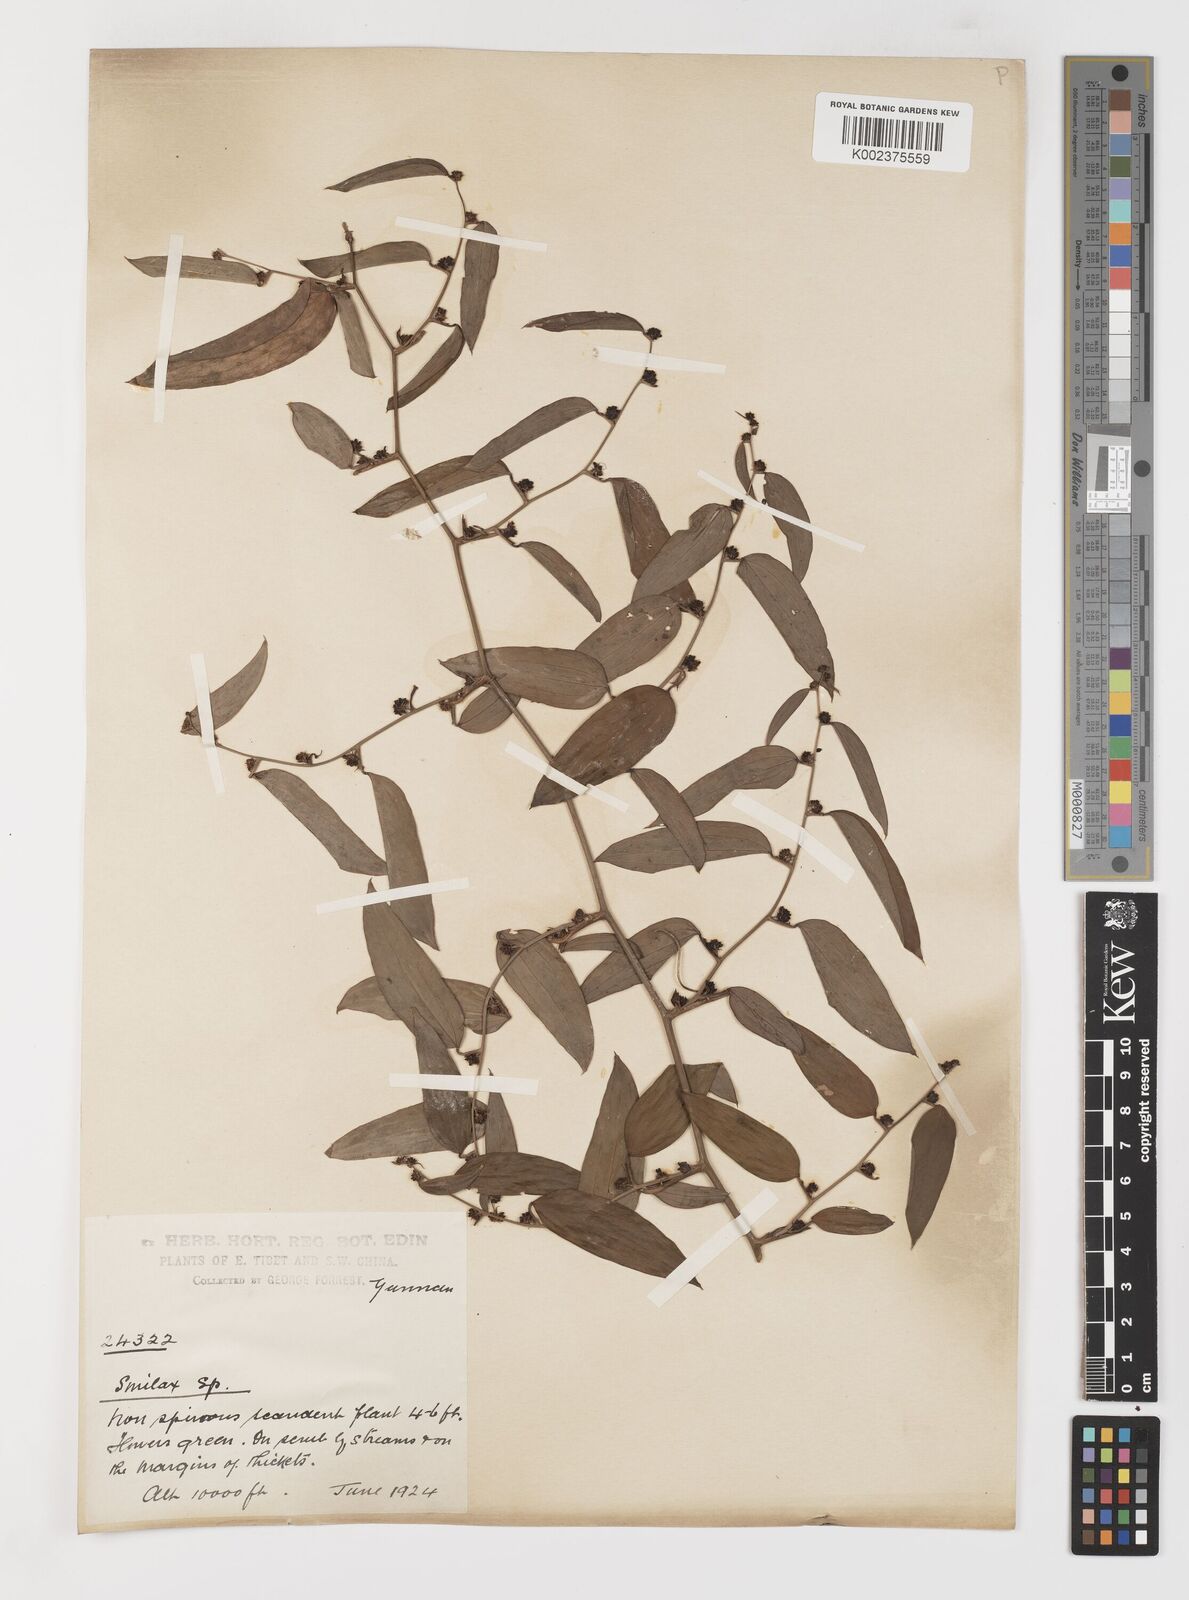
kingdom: Plantae
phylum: Tracheophyta
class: Liliopsida
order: Liliales
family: Smilacaceae
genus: Smilax
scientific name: Smilax lanceifolia
